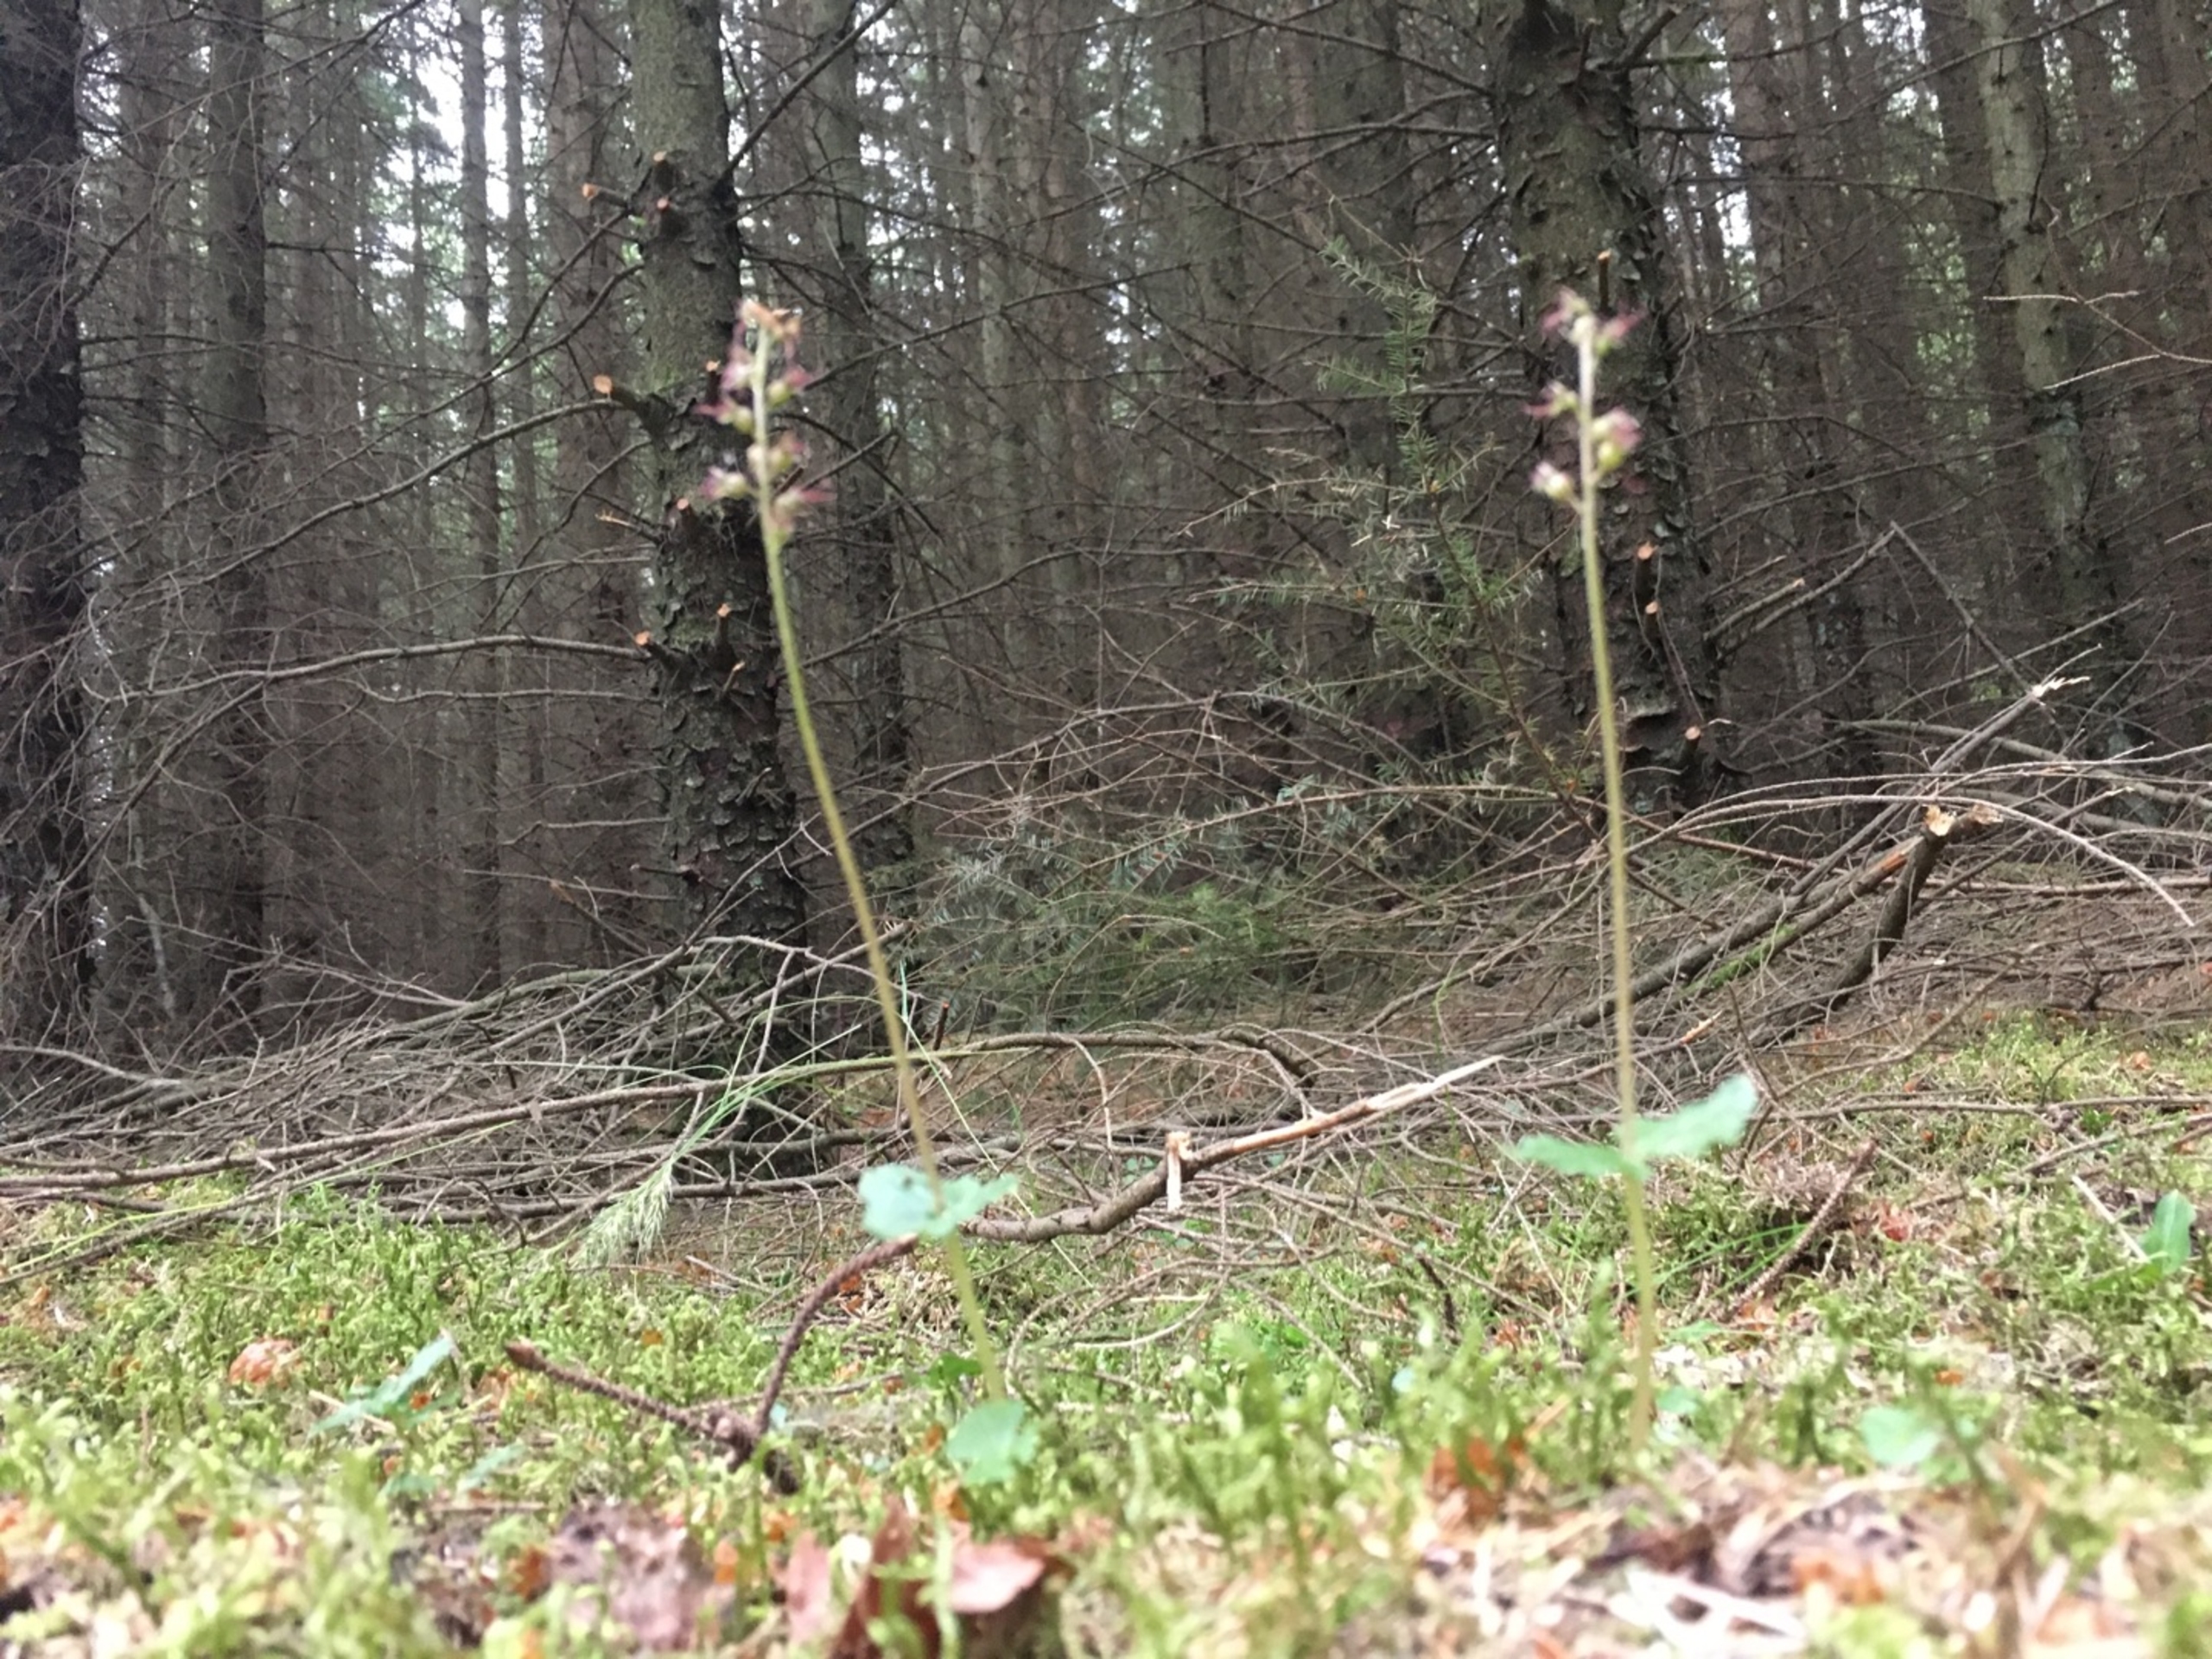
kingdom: Plantae
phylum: Tracheophyta
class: Liliopsida
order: Asparagales
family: Orchidaceae
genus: Neottia
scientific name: Neottia cordata
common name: Hjertebladet fliglæbe
